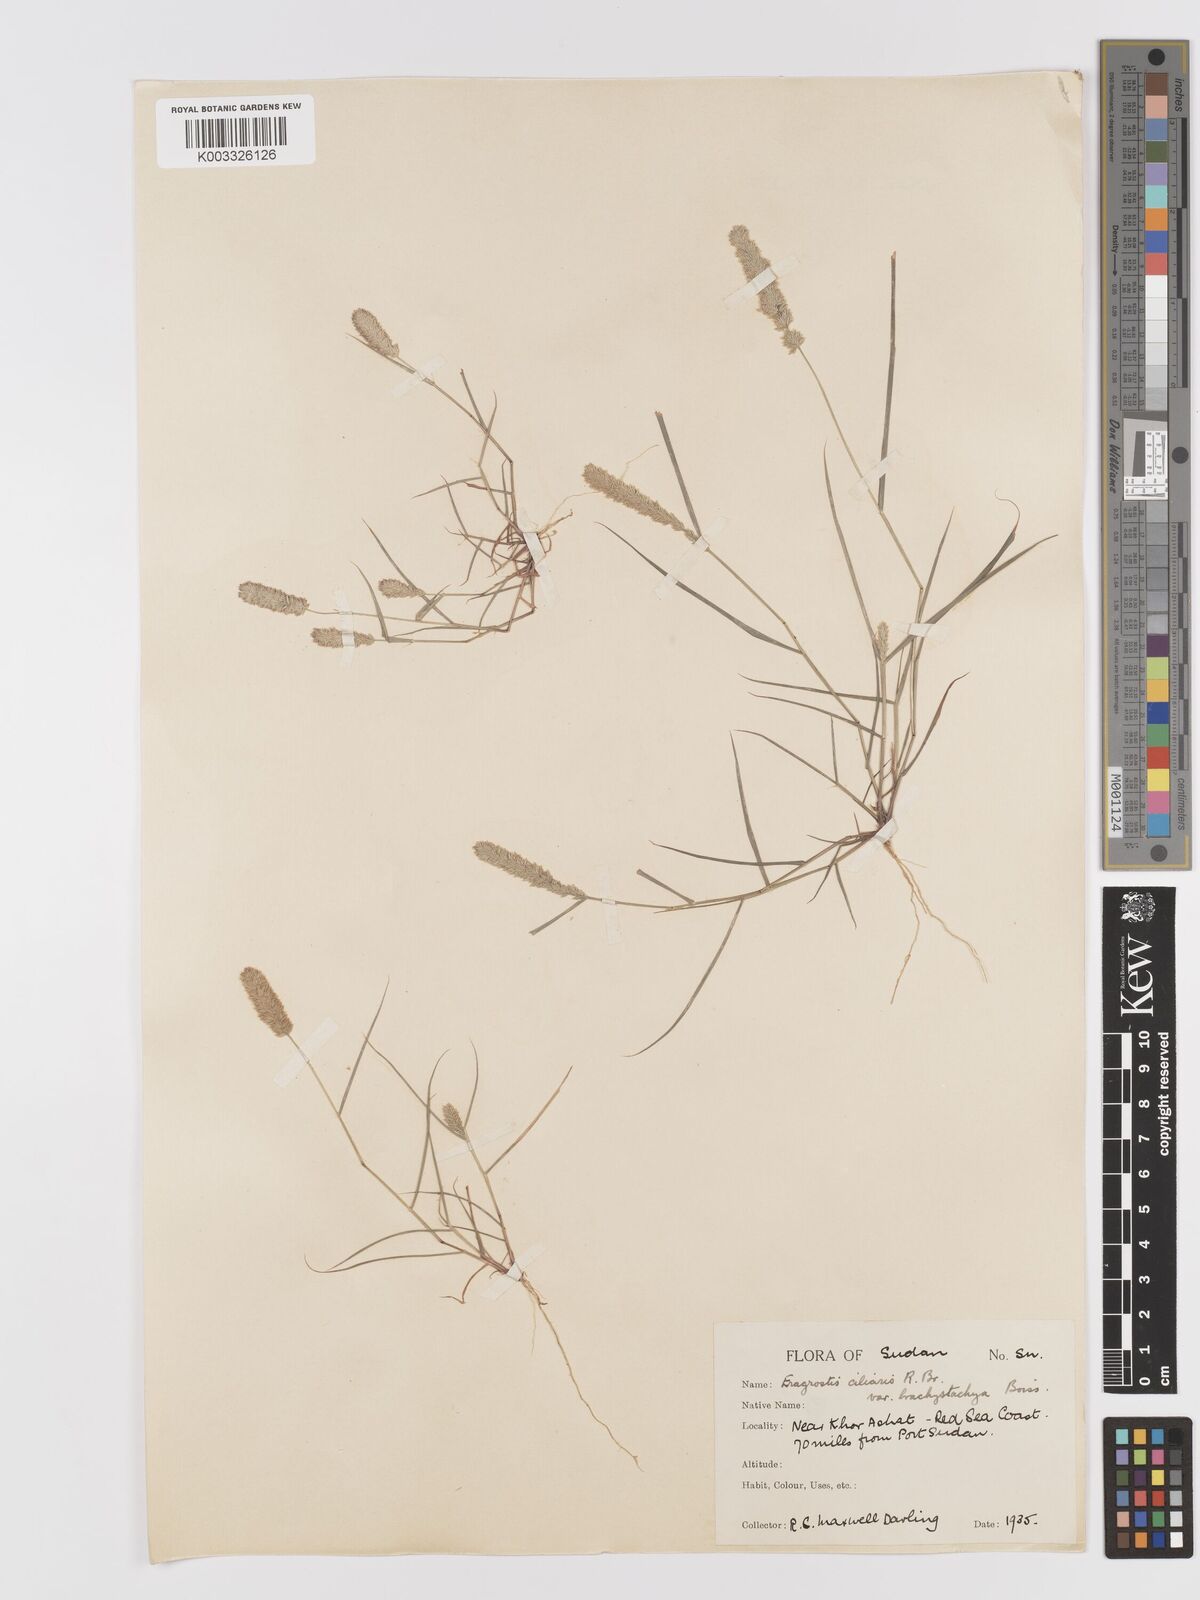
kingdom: Plantae
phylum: Tracheophyta
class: Liliopsida
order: Poales
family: Poaceae
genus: Eragrostis
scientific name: Eragrostis ciliaris
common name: Gophertail lovegrass
